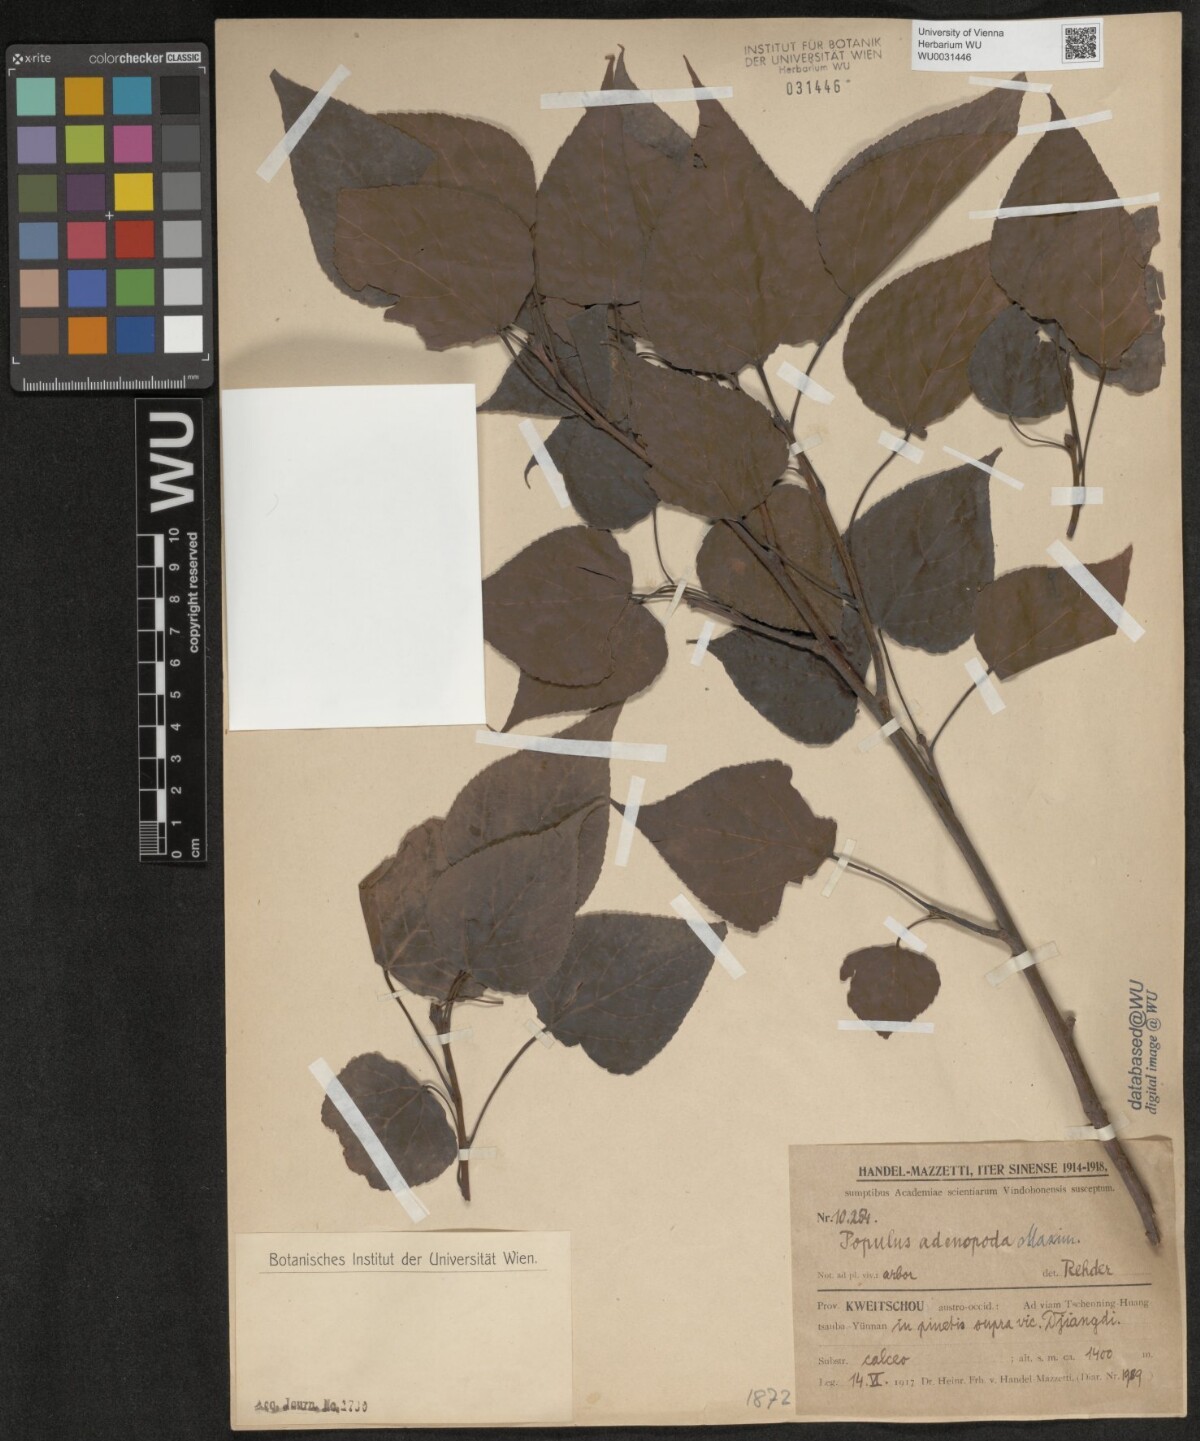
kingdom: Plantae
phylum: Tracheophyta
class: Magnoliopsida
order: Malpighiales
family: Salicaceae
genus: Populus
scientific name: Populus adenopoda
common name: Chinese aspen
